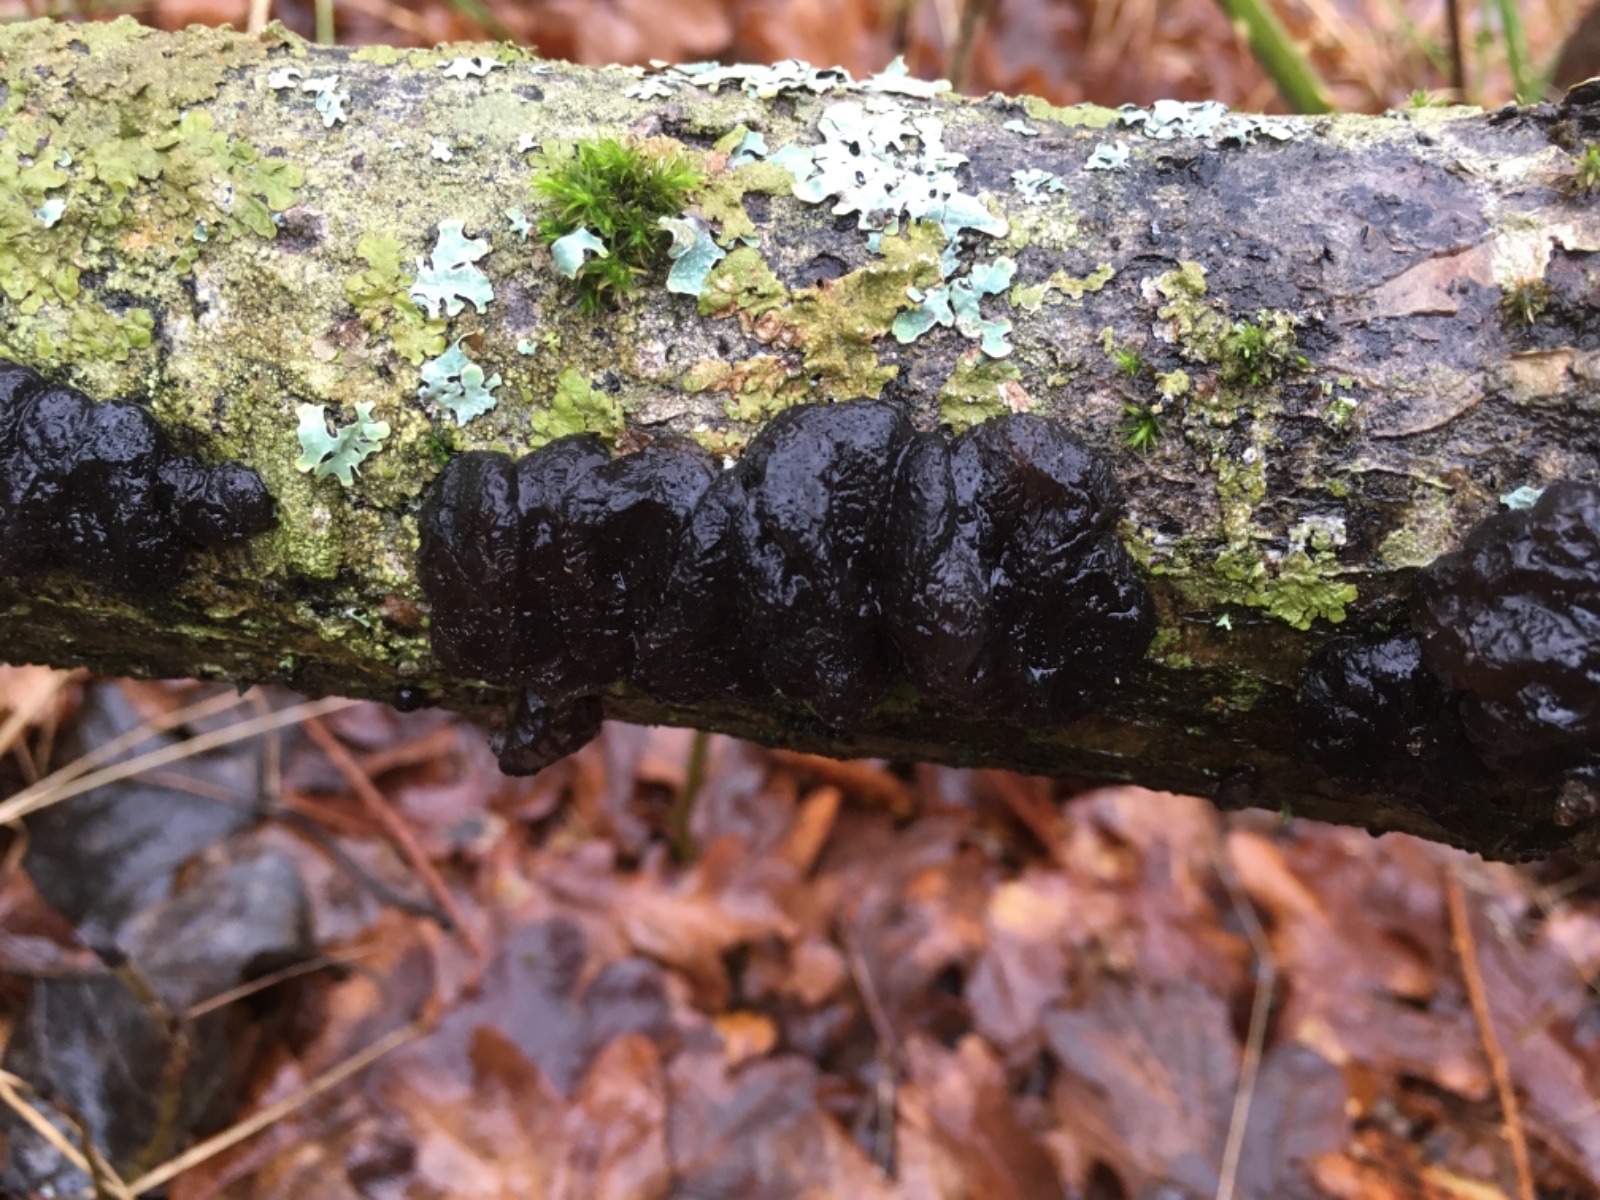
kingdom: Fungi
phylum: Basidiomycota
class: Agaricomycetes
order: Auriculariales
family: Auriculariaceae
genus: Exidia
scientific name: Exidia nigricans
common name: almindelig bævretop
